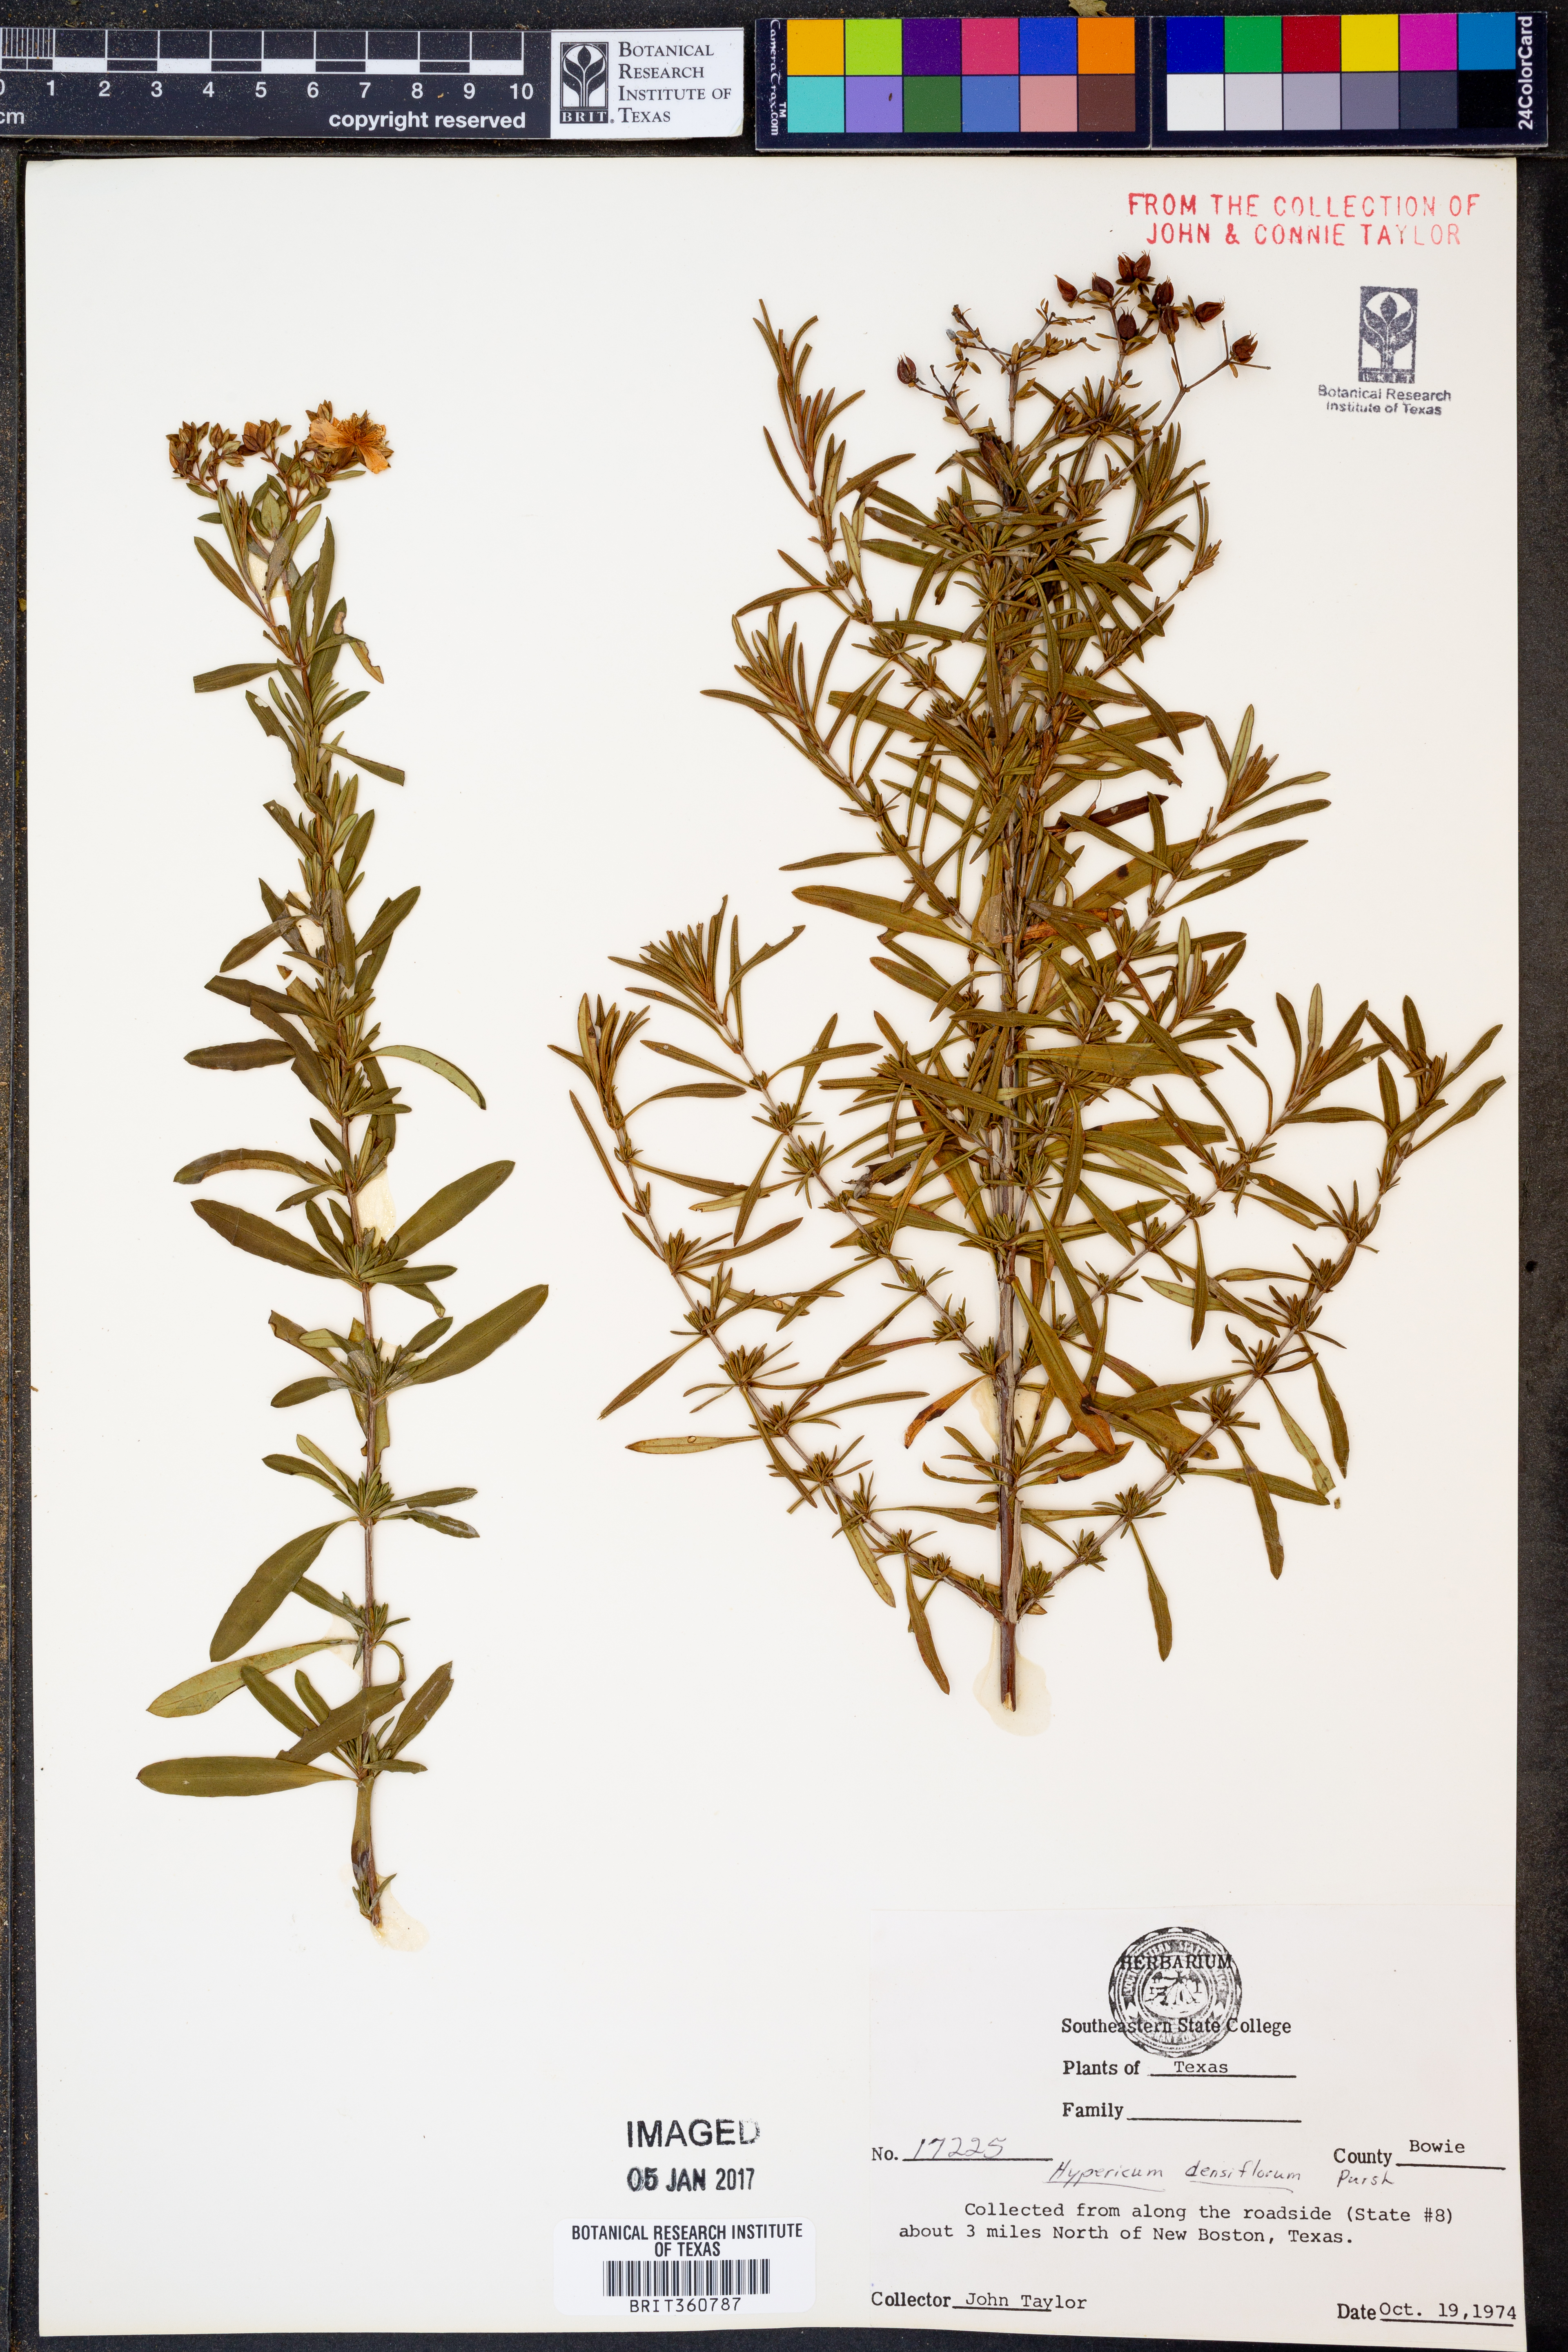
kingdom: Plantae
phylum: Tracheophyta
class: Magnoliopsida
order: Malpighiales
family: Hypericaceae
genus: Hypericum
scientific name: Hypericum densiflorum
